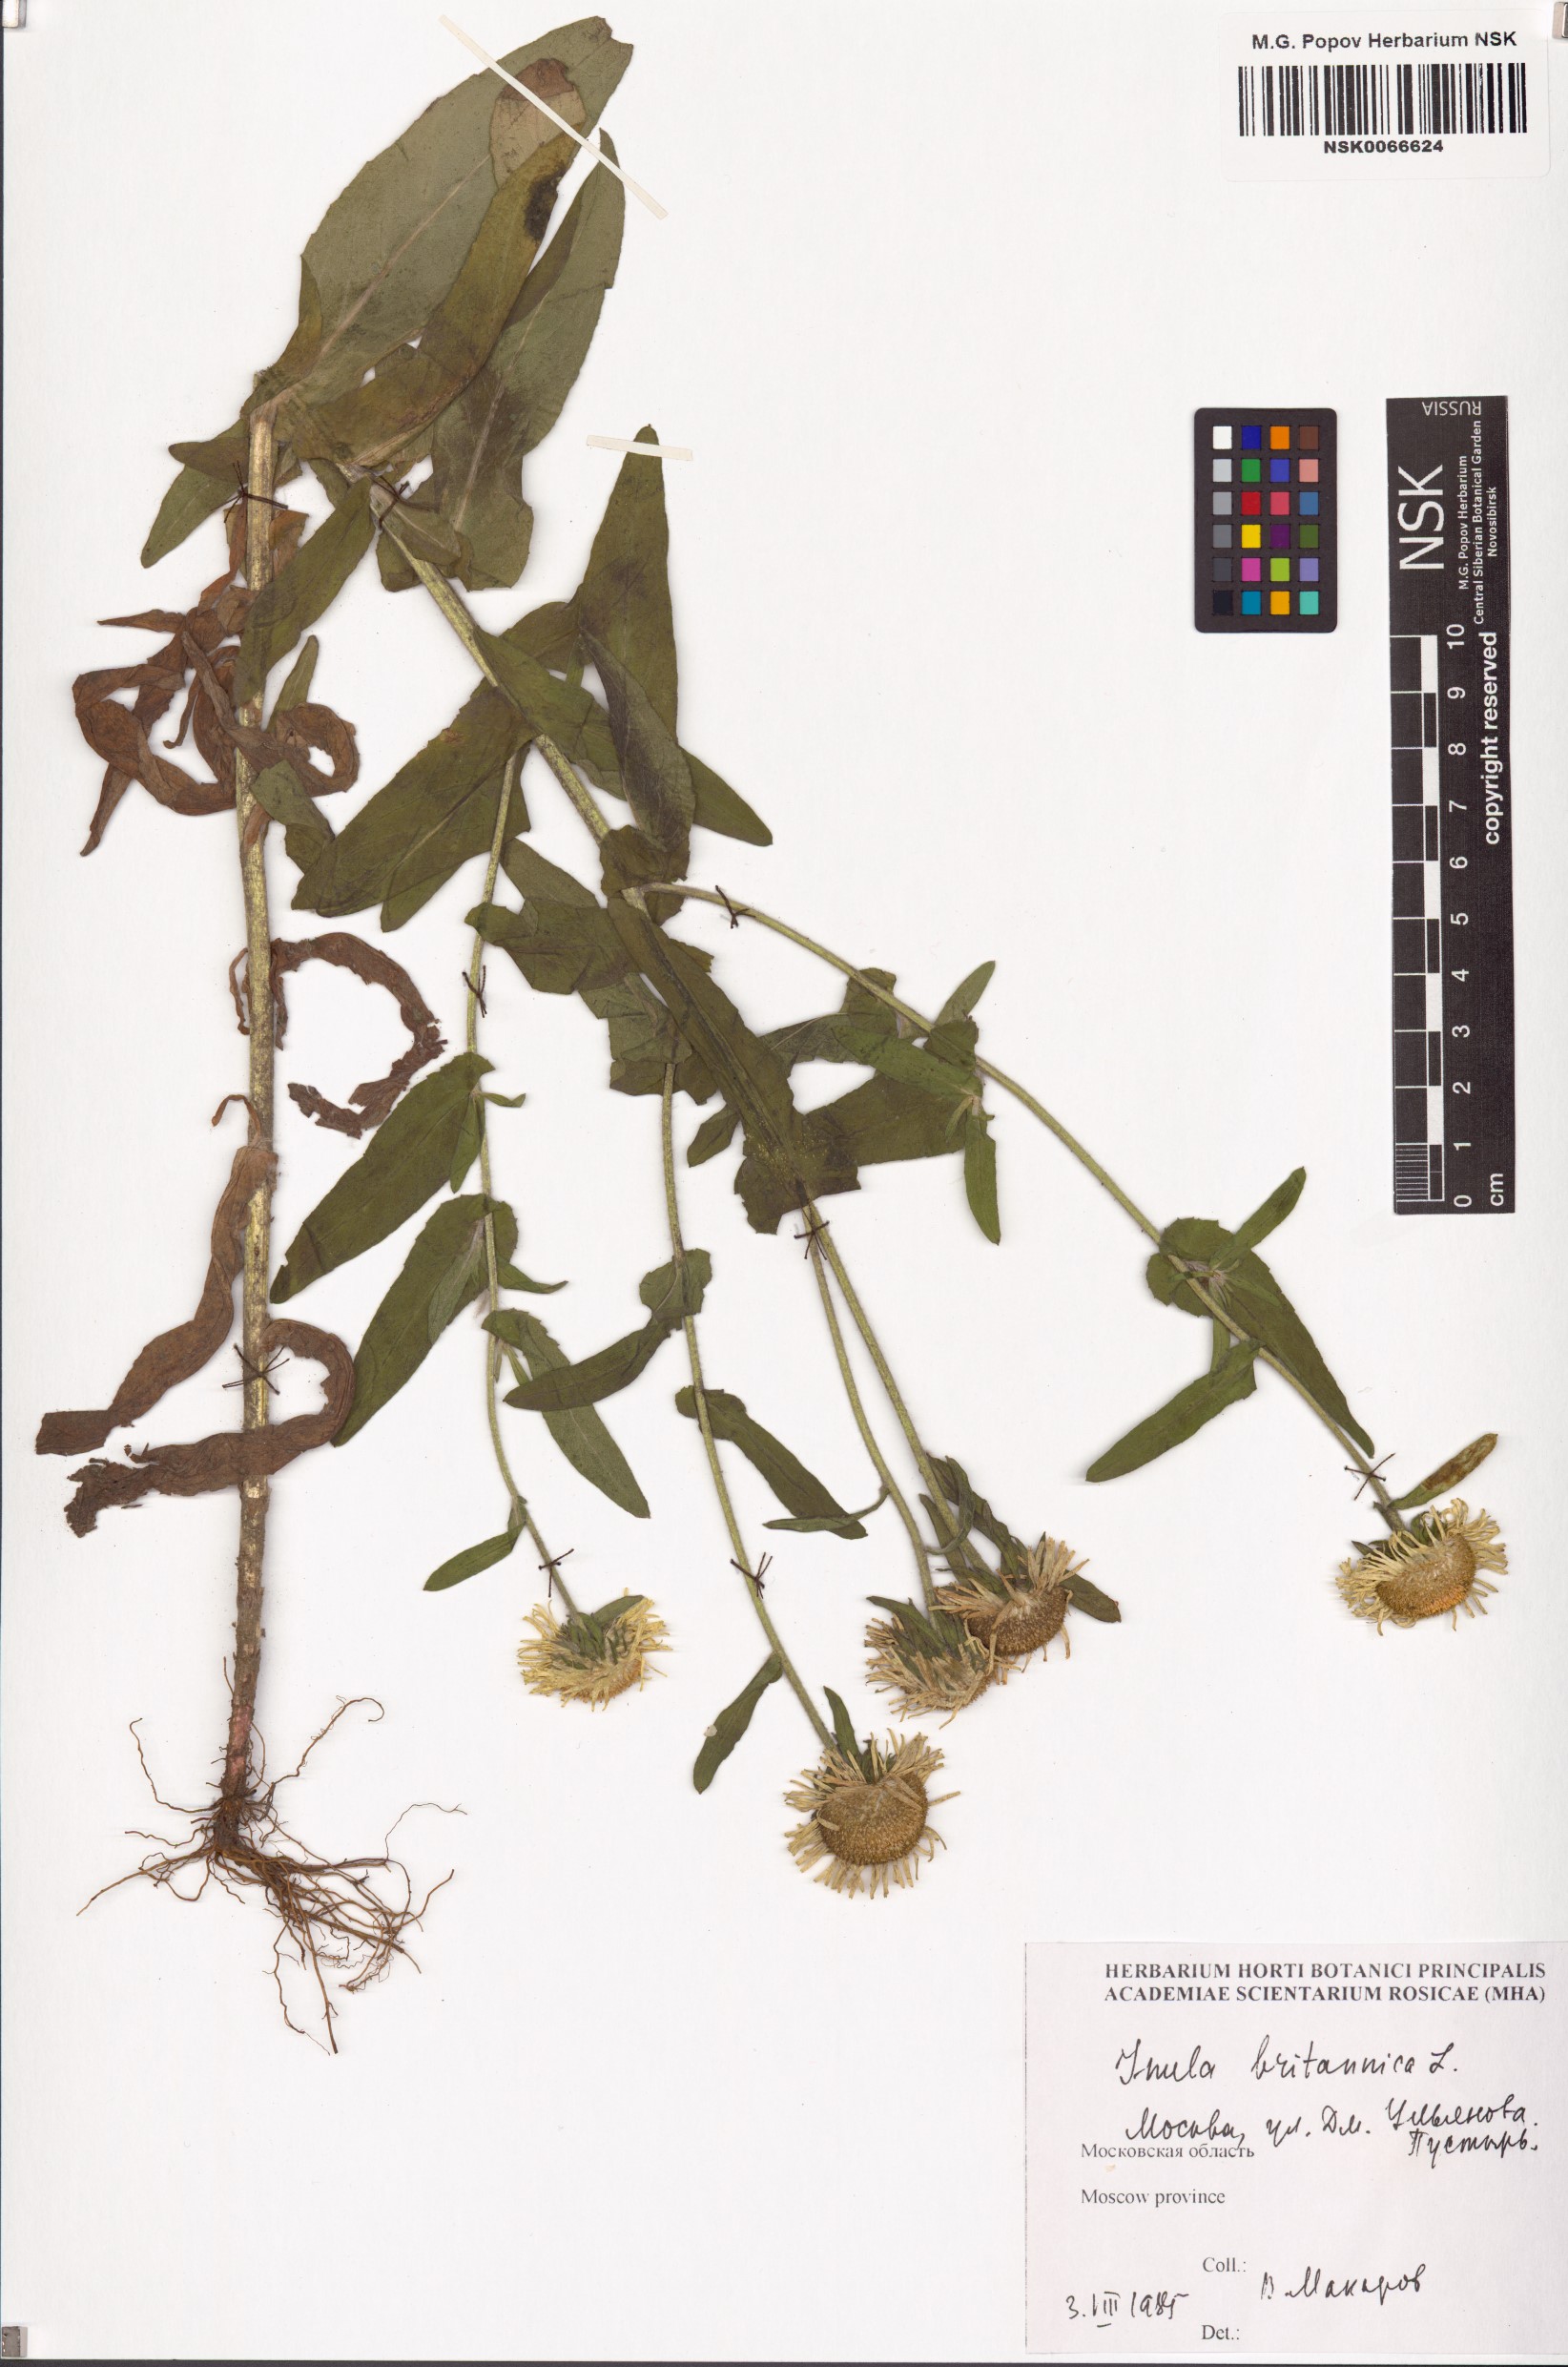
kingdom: Plantae
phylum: Tracheophyta
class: Magnoliopsida
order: Asterales
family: Asteraceae
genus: Pentanema
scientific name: Pentanema britannicum
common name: British elecampane
